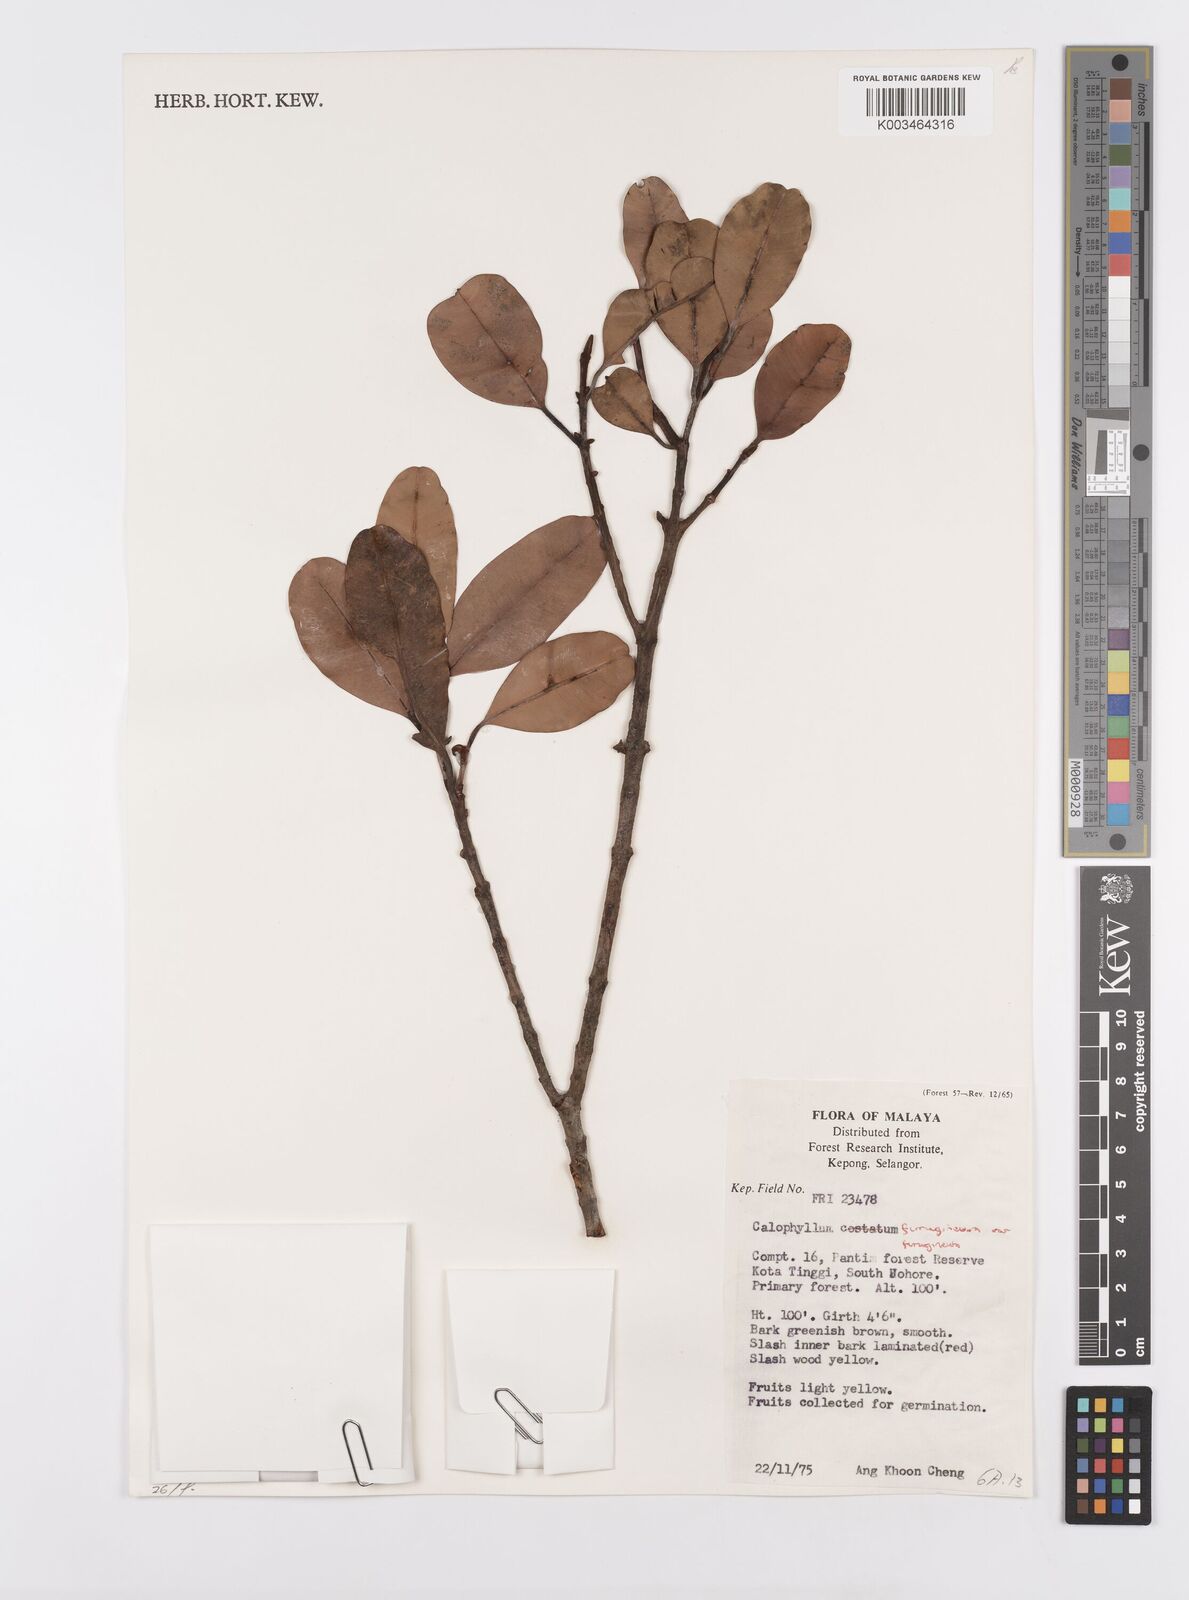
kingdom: Plantae
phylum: Tracheophyta
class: Magnoliopsida
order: Malpighiales
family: Calophyllaceae
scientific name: Calophyllaceae
